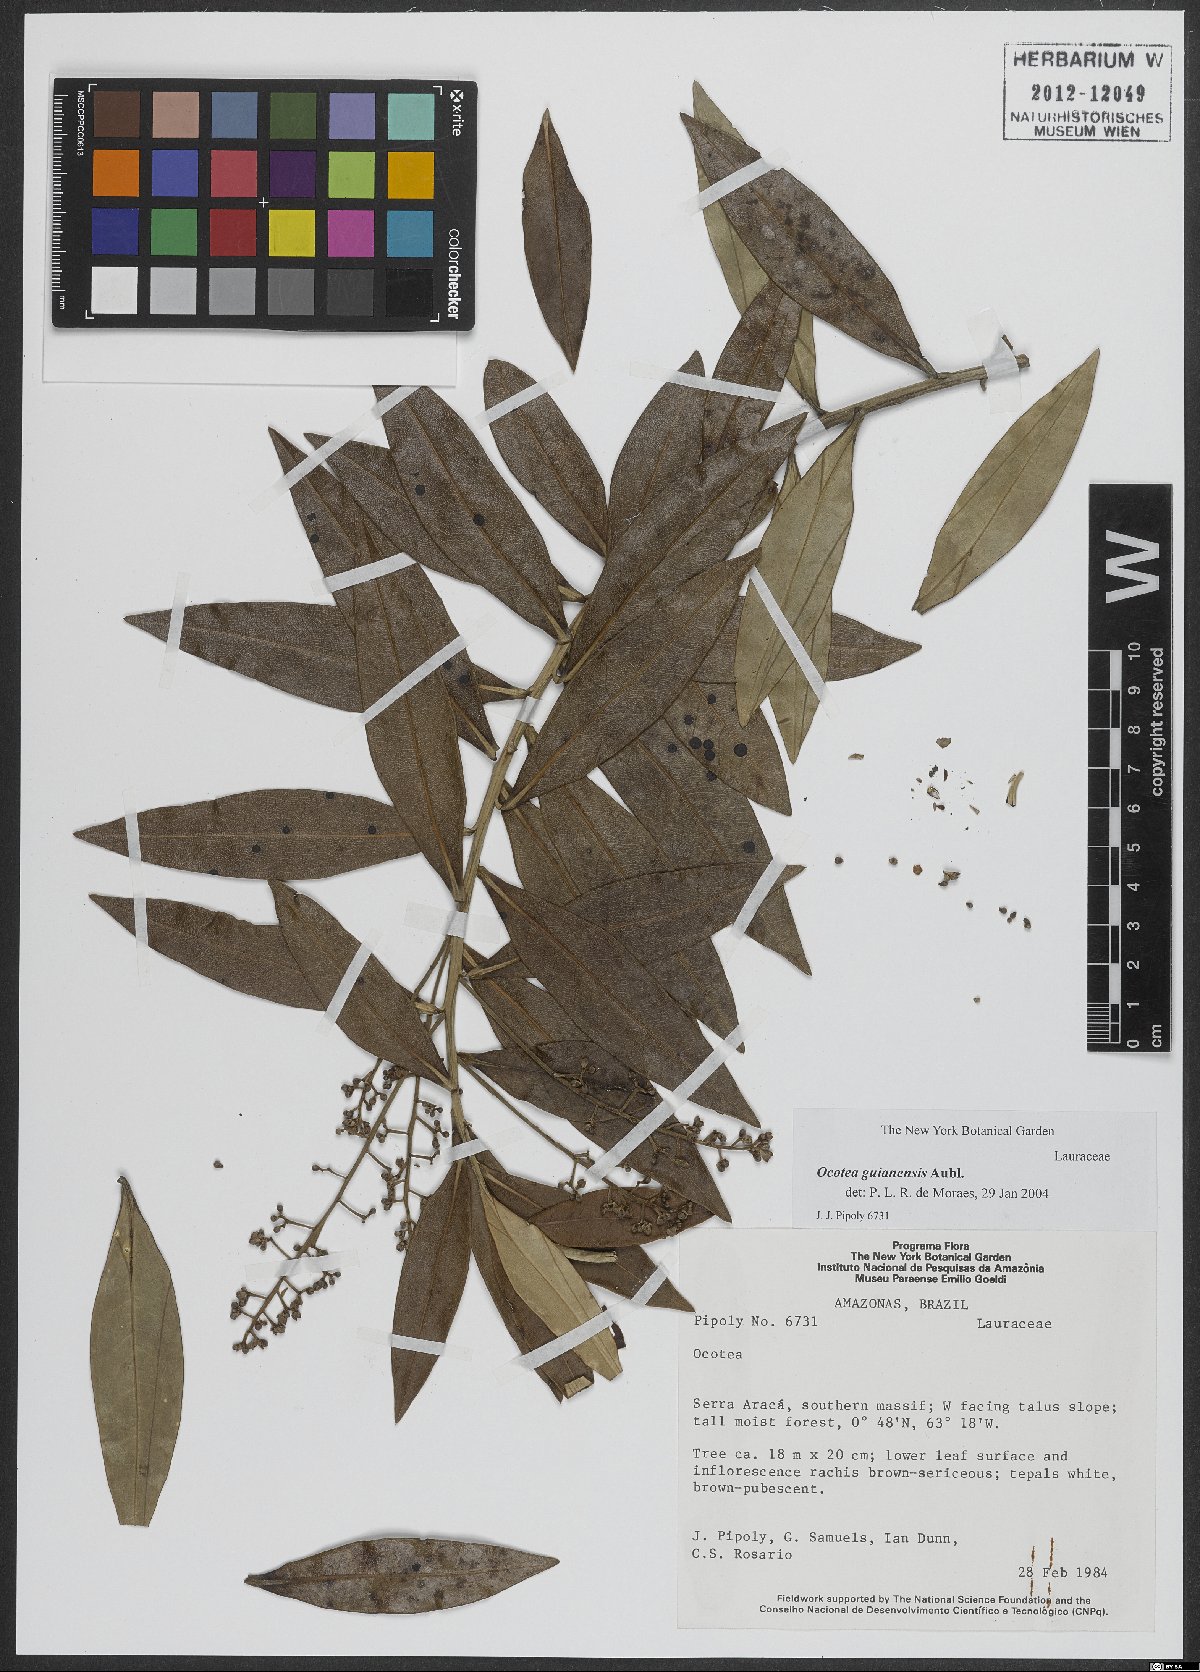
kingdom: Plantae
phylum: Tracheophyta
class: Magnoliopsida
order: Laurales
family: Lauraceae
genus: Ocotea
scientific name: Ocotea guianensis
